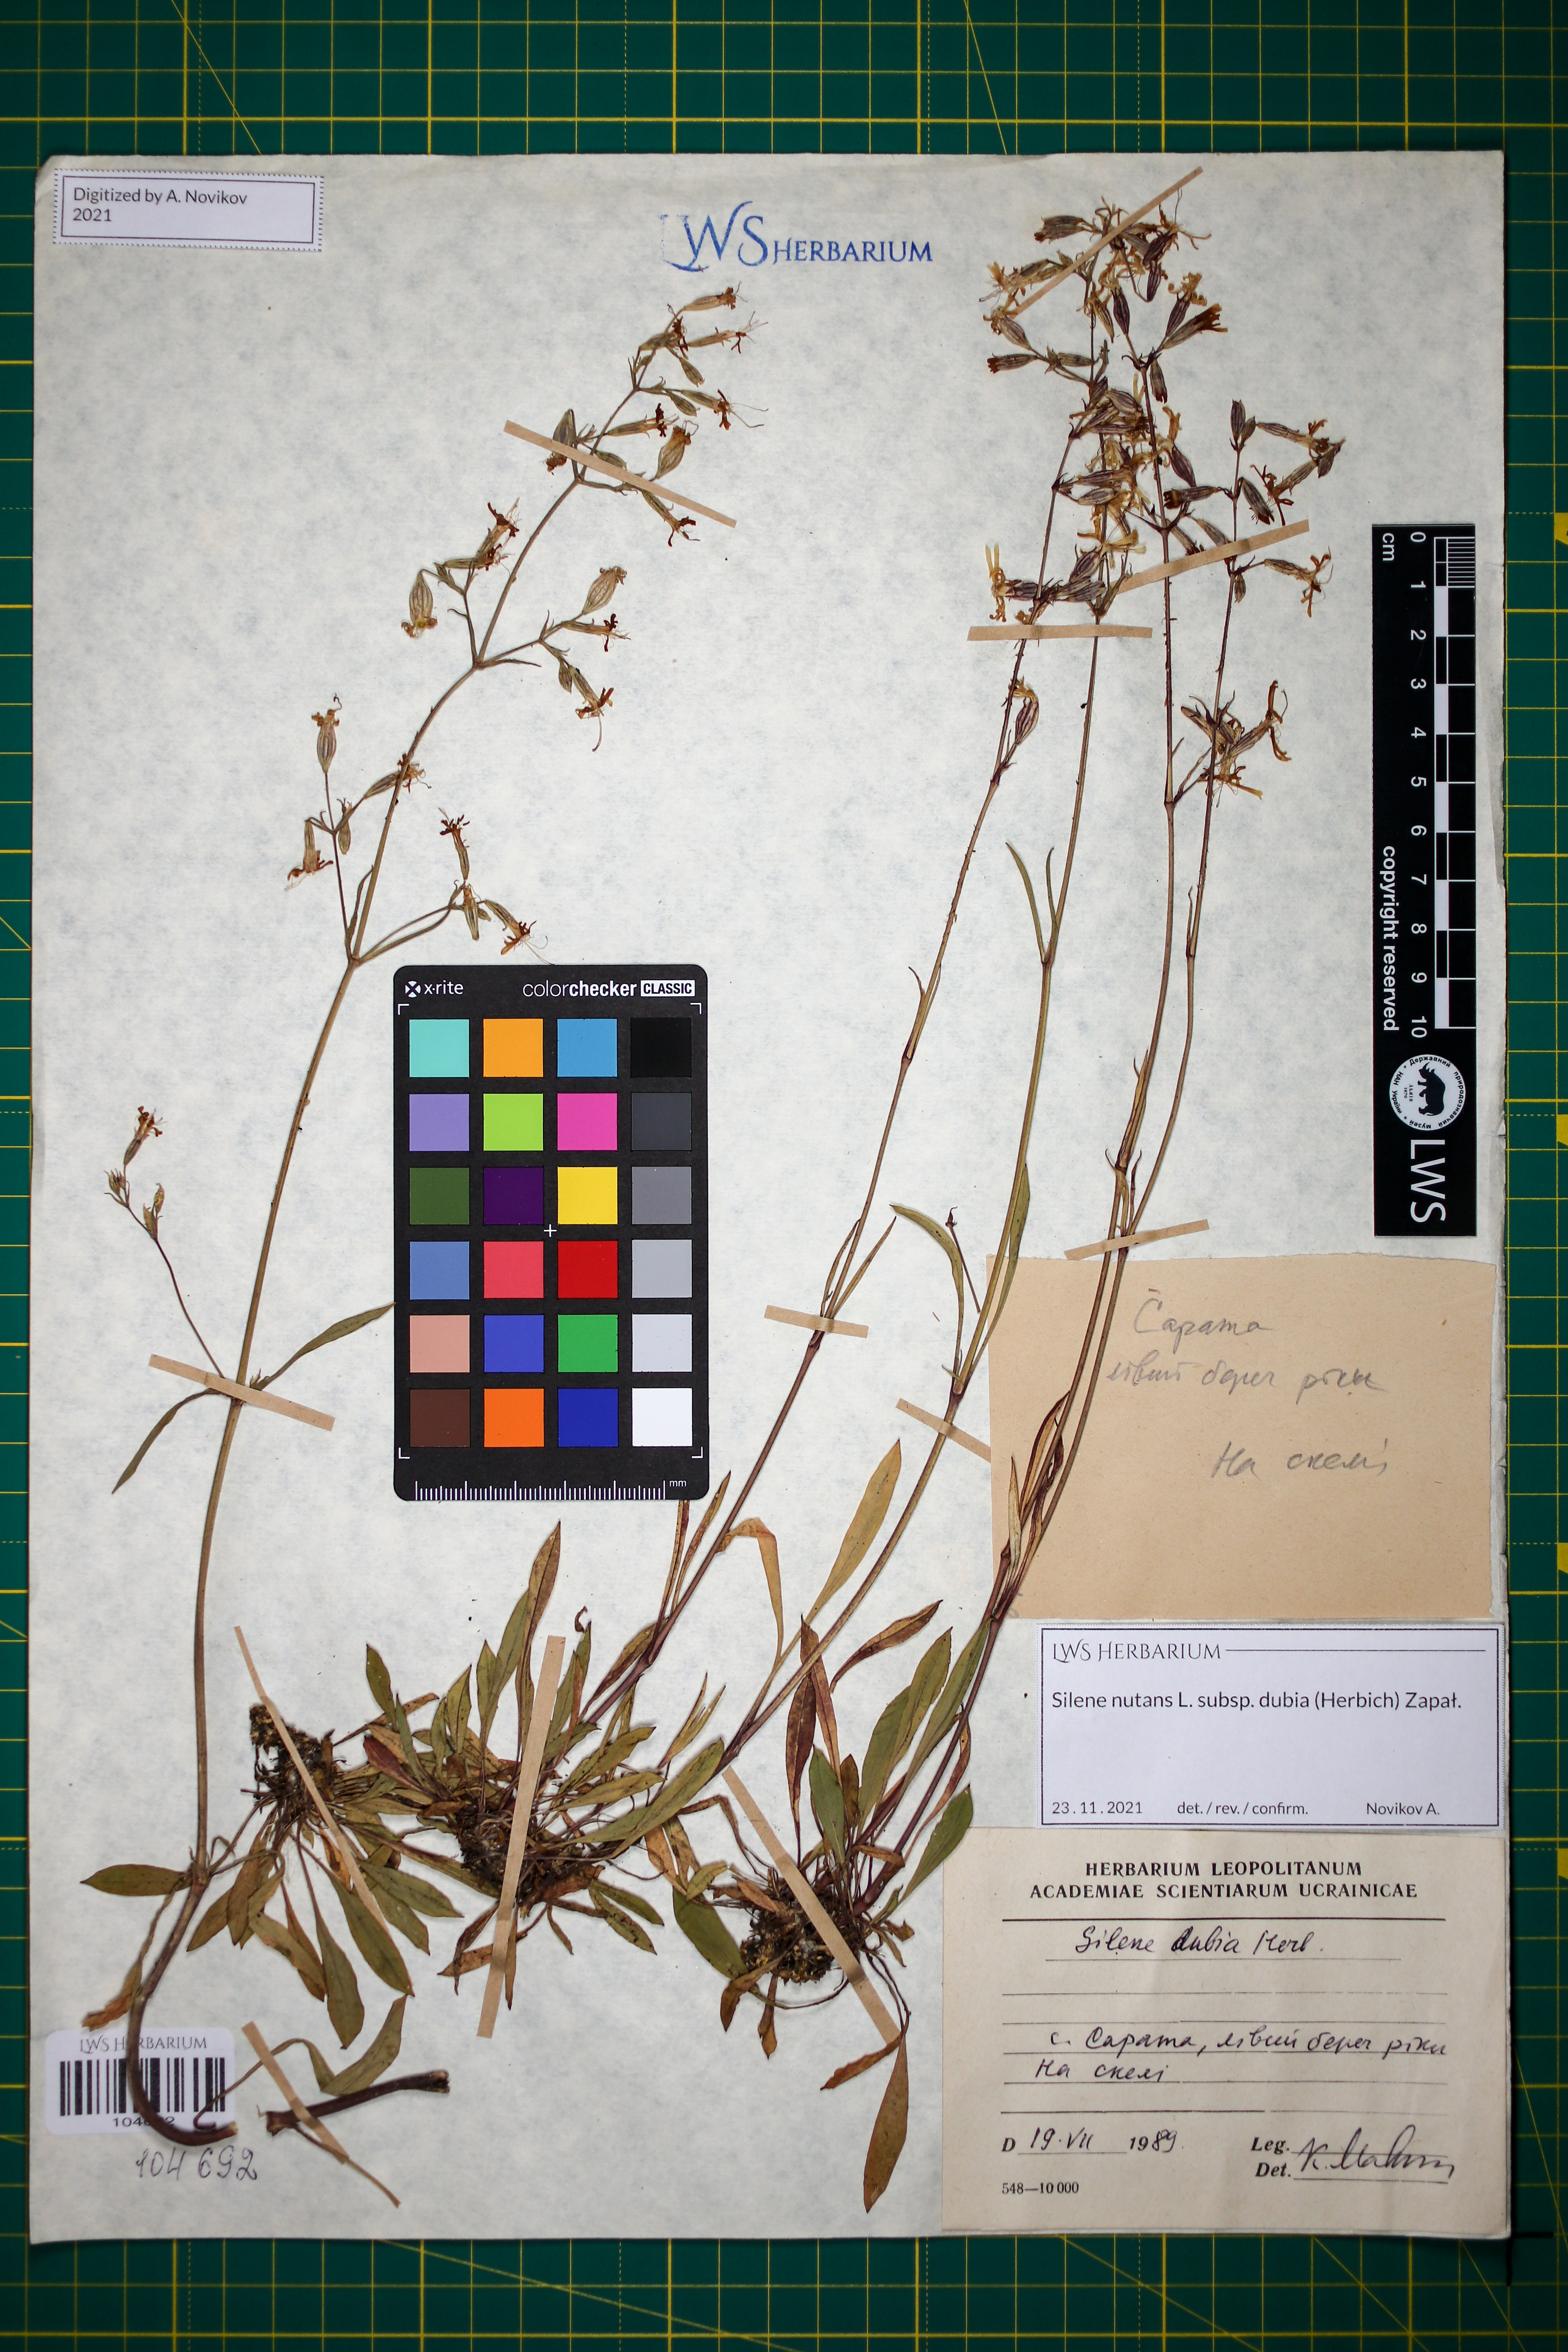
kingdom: Plantae
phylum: Tracheophyta
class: Magnoliopsida
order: Caryophyllales
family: Caryophyllaceae
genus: Silene
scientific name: Silene nutans
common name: Nottingham catchfly
